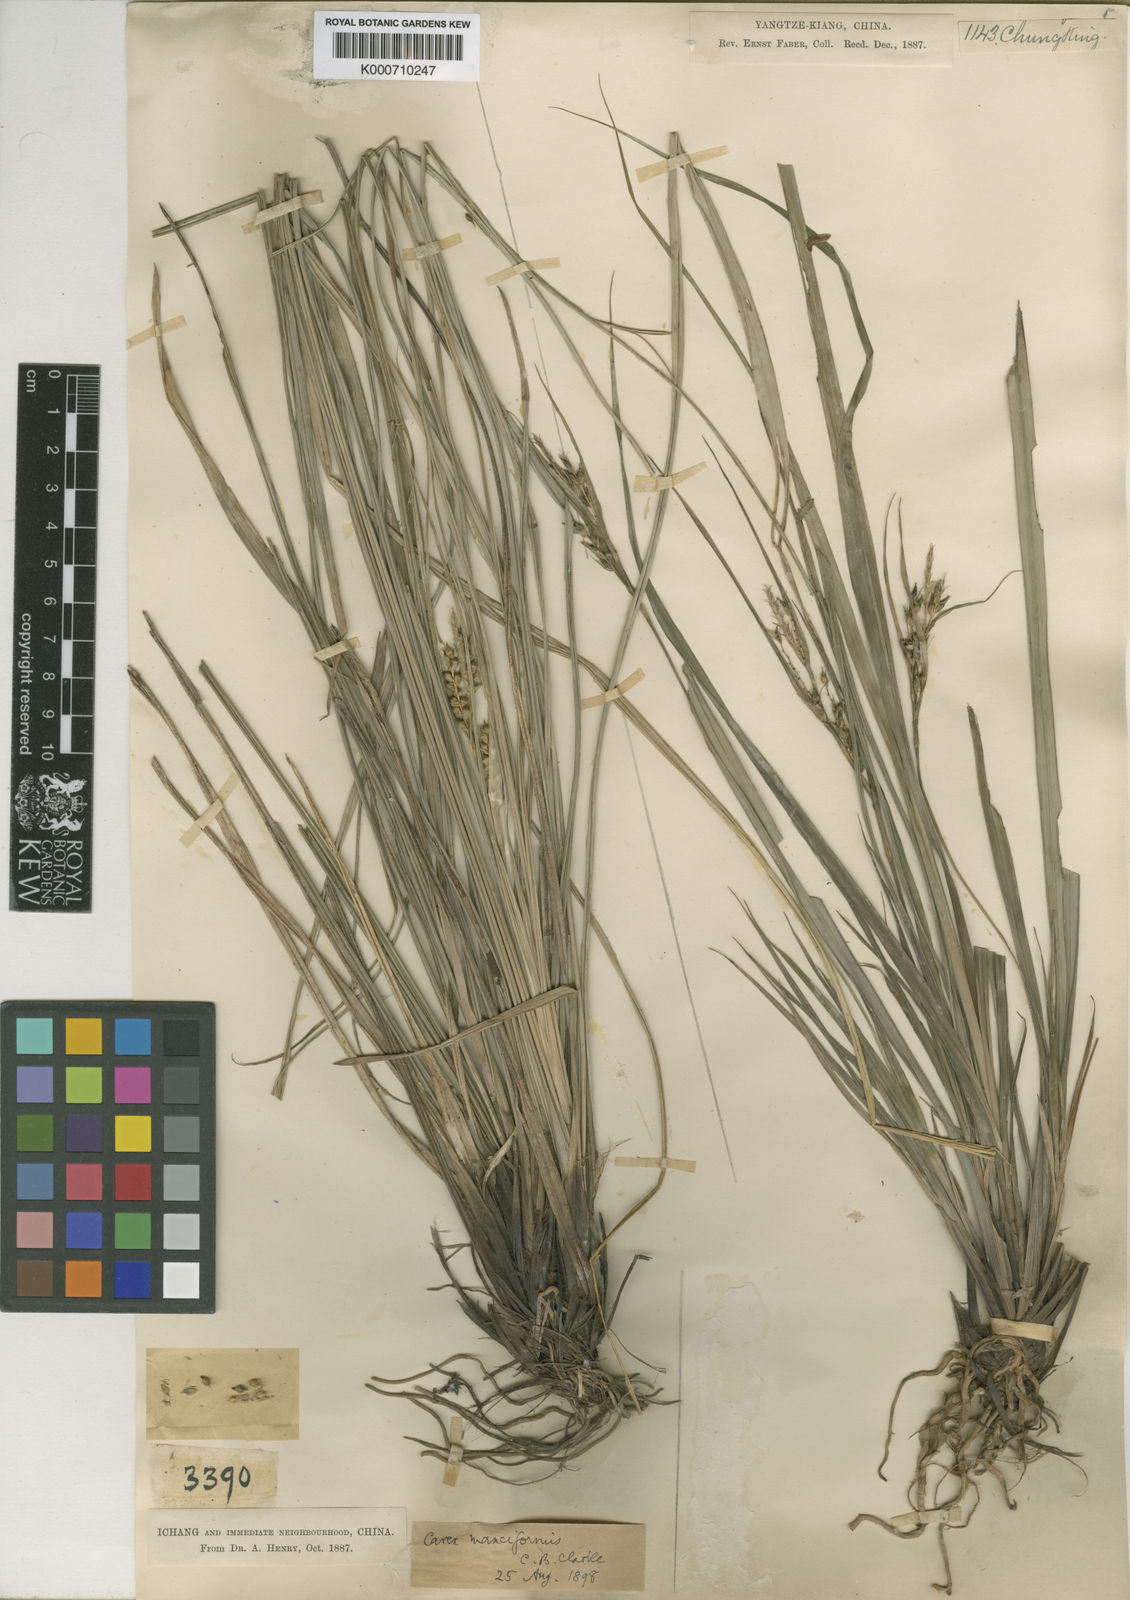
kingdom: Plantae
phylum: Tracheophyta
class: Liliopsida
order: Poales
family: Cyperaceae
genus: Carex
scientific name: Carex manciformis
